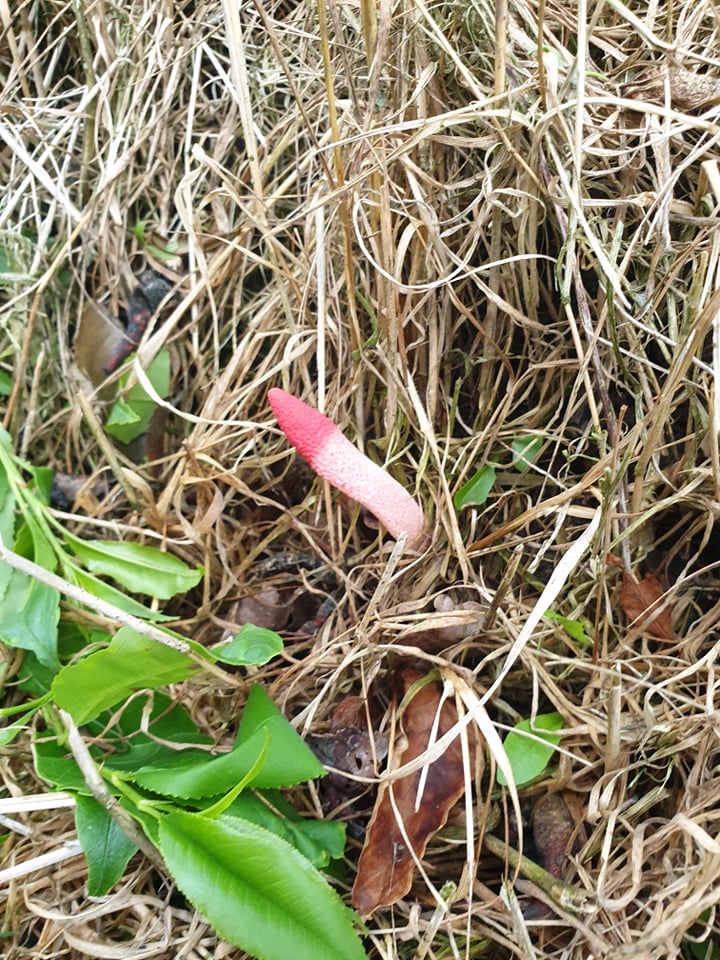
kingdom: Fungi
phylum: Basidiomycota
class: Agaricomycetes
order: Phallales
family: Phallaceae
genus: Mutinus
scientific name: Mutinus ravenelii
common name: rød stinksvamp
